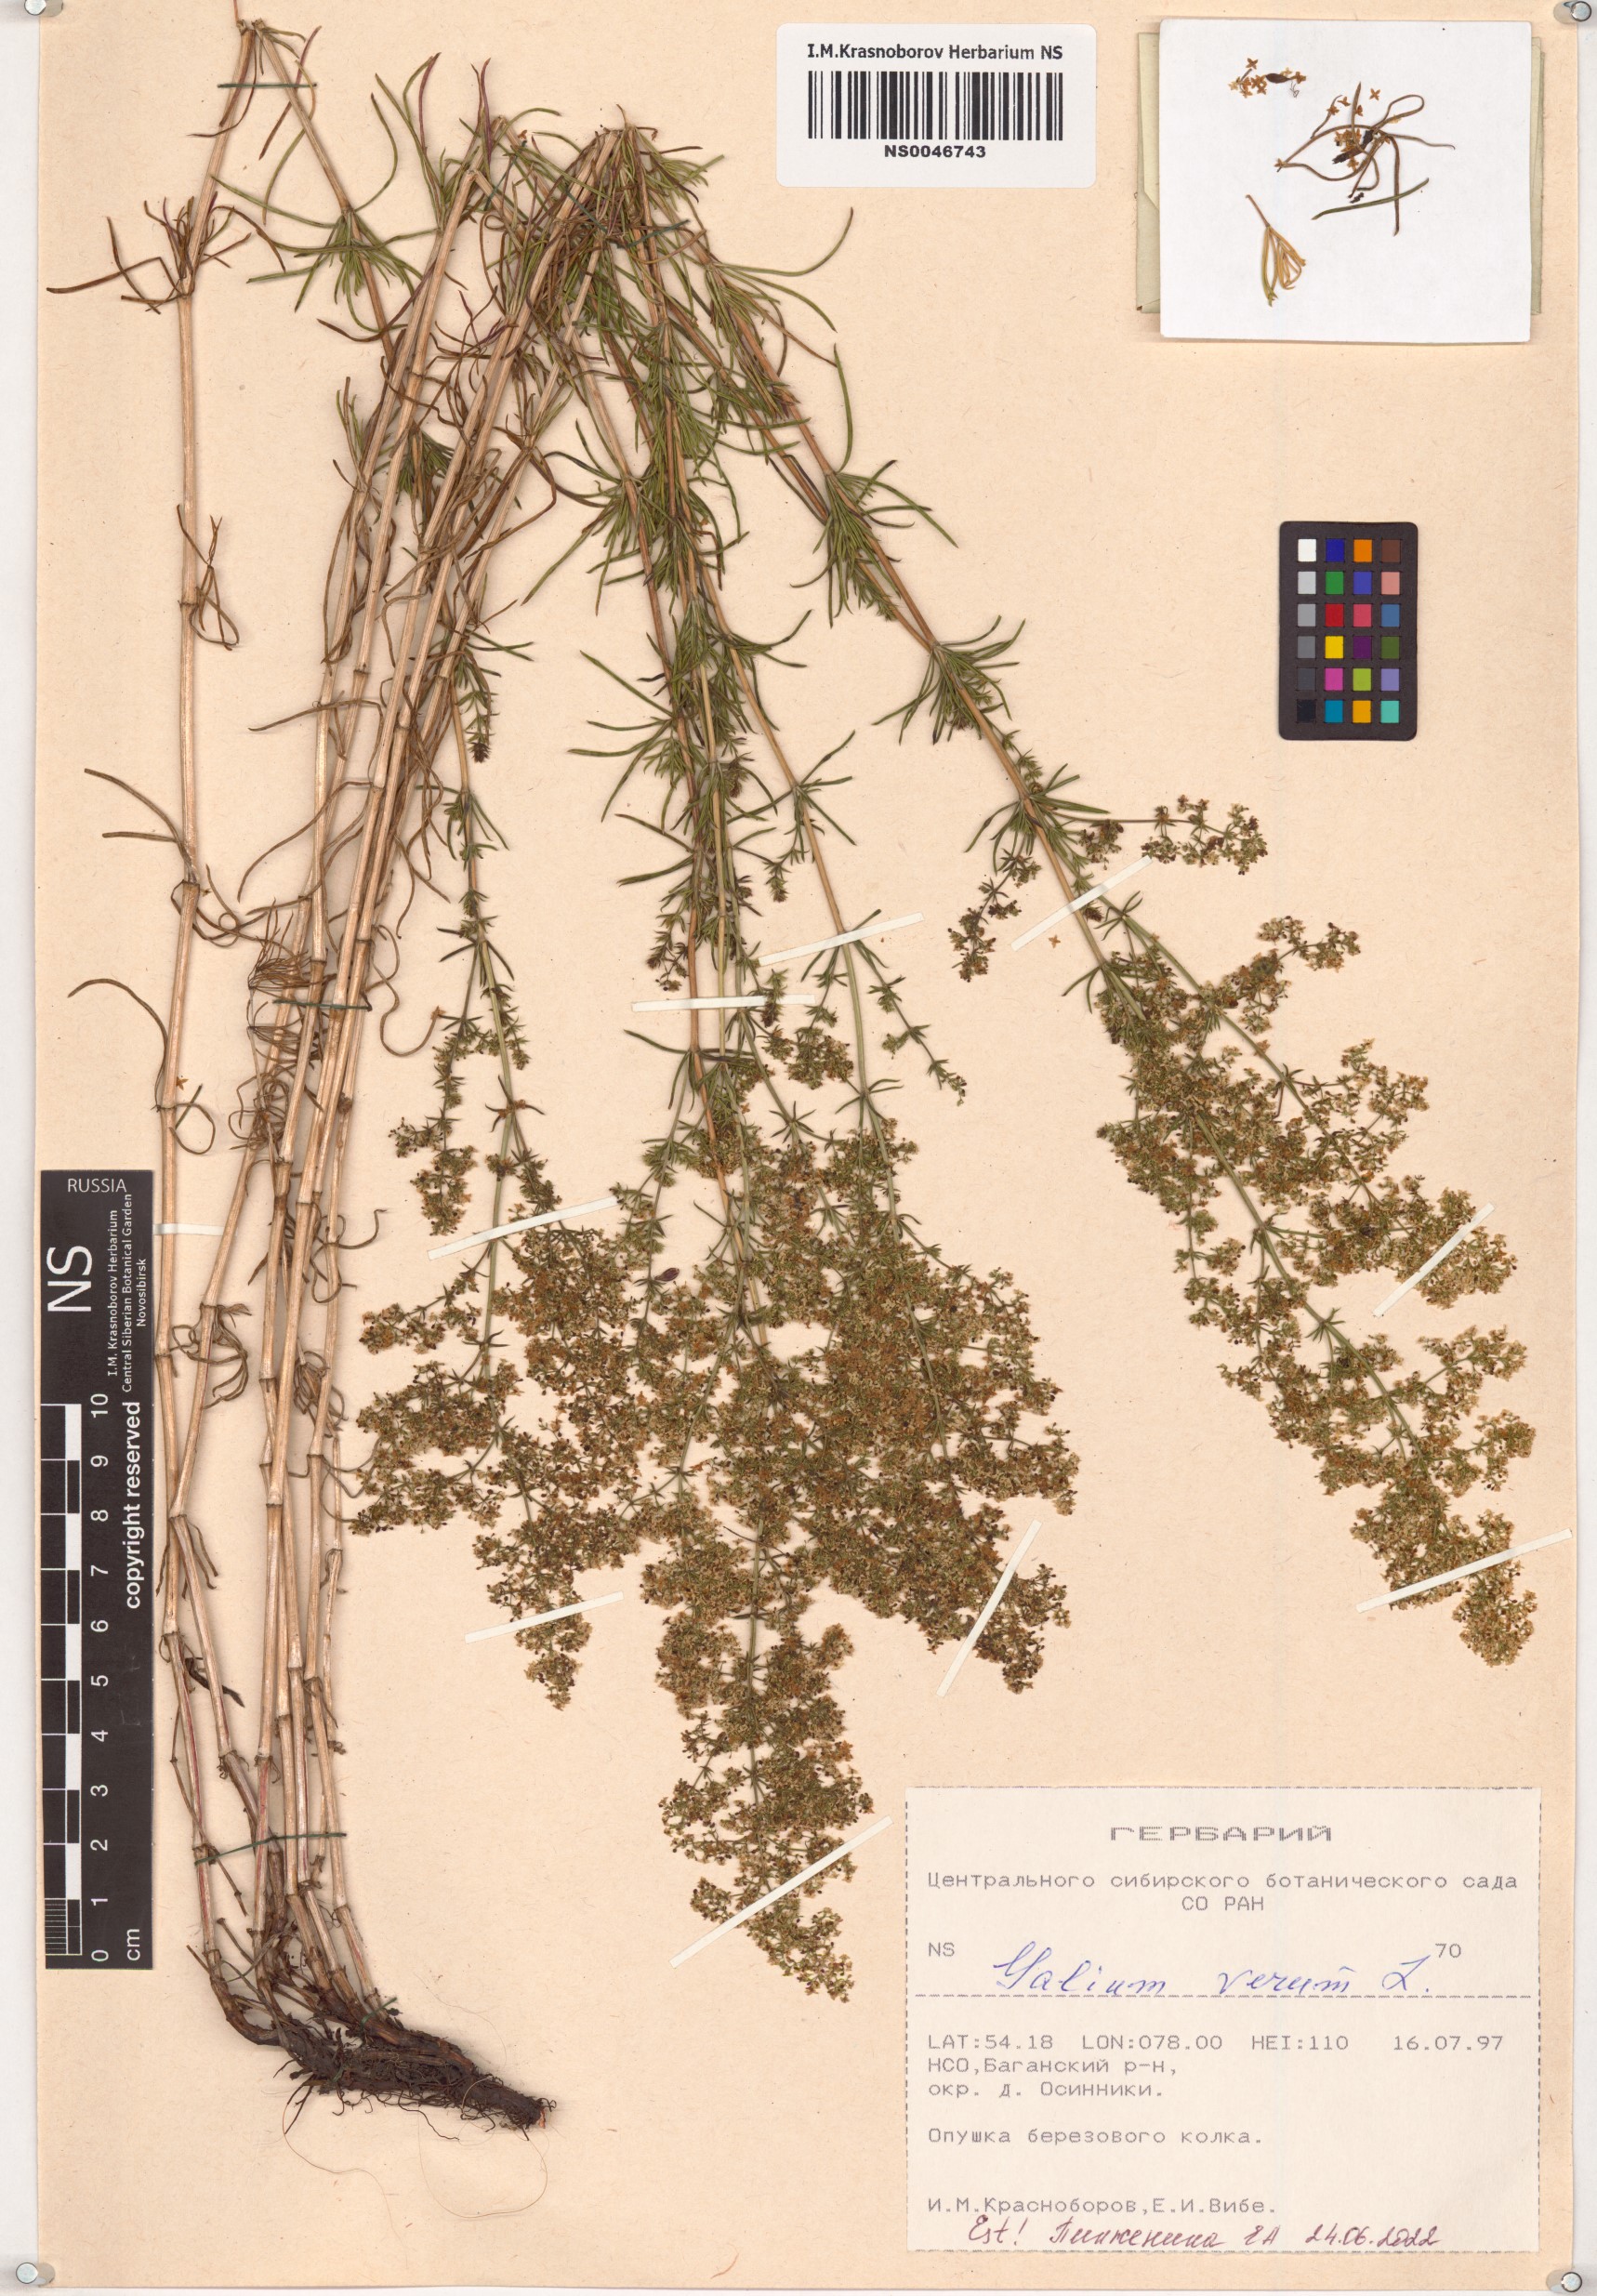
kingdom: Plantae
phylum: Tracheophyta
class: Magnoliopsida
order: Gentianales
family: Rubiaceae
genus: Galium
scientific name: Galium verum
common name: Lady's bedstraw
